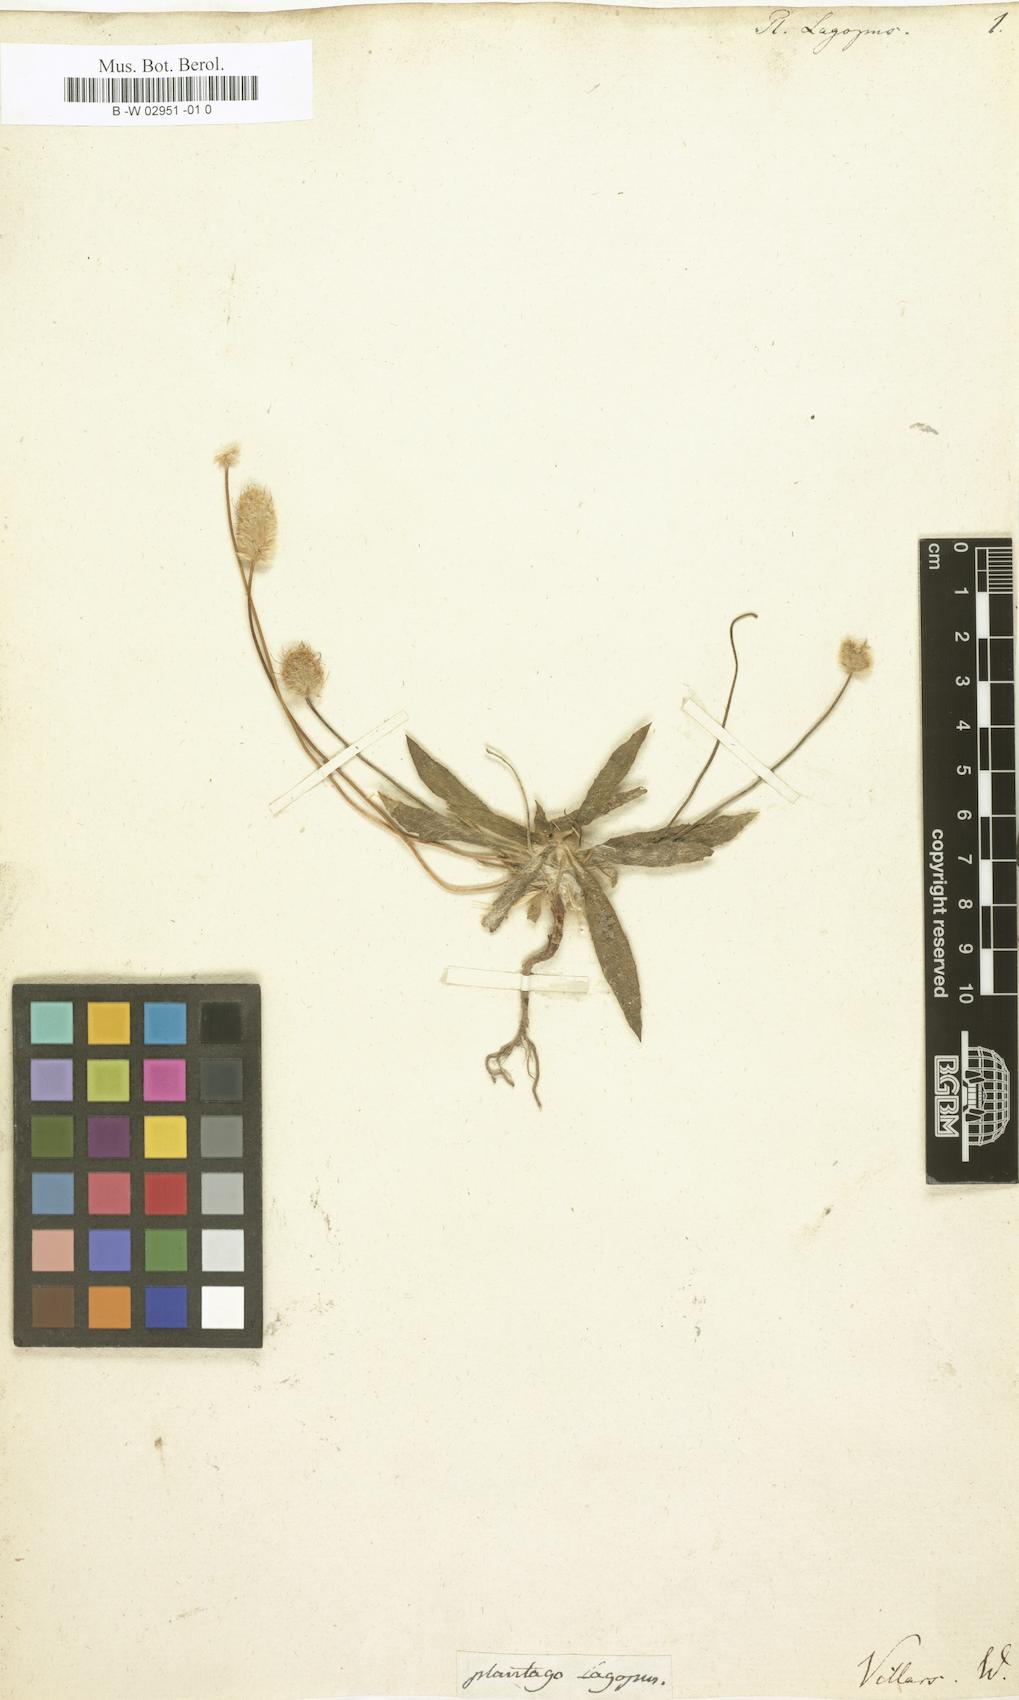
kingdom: Plantae
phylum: Tracheophyta
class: Magnoliopsida
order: Lamiales
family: Plantaginaceae
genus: Plantago
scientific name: Plantago lagopus
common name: Hare-foot plantain
